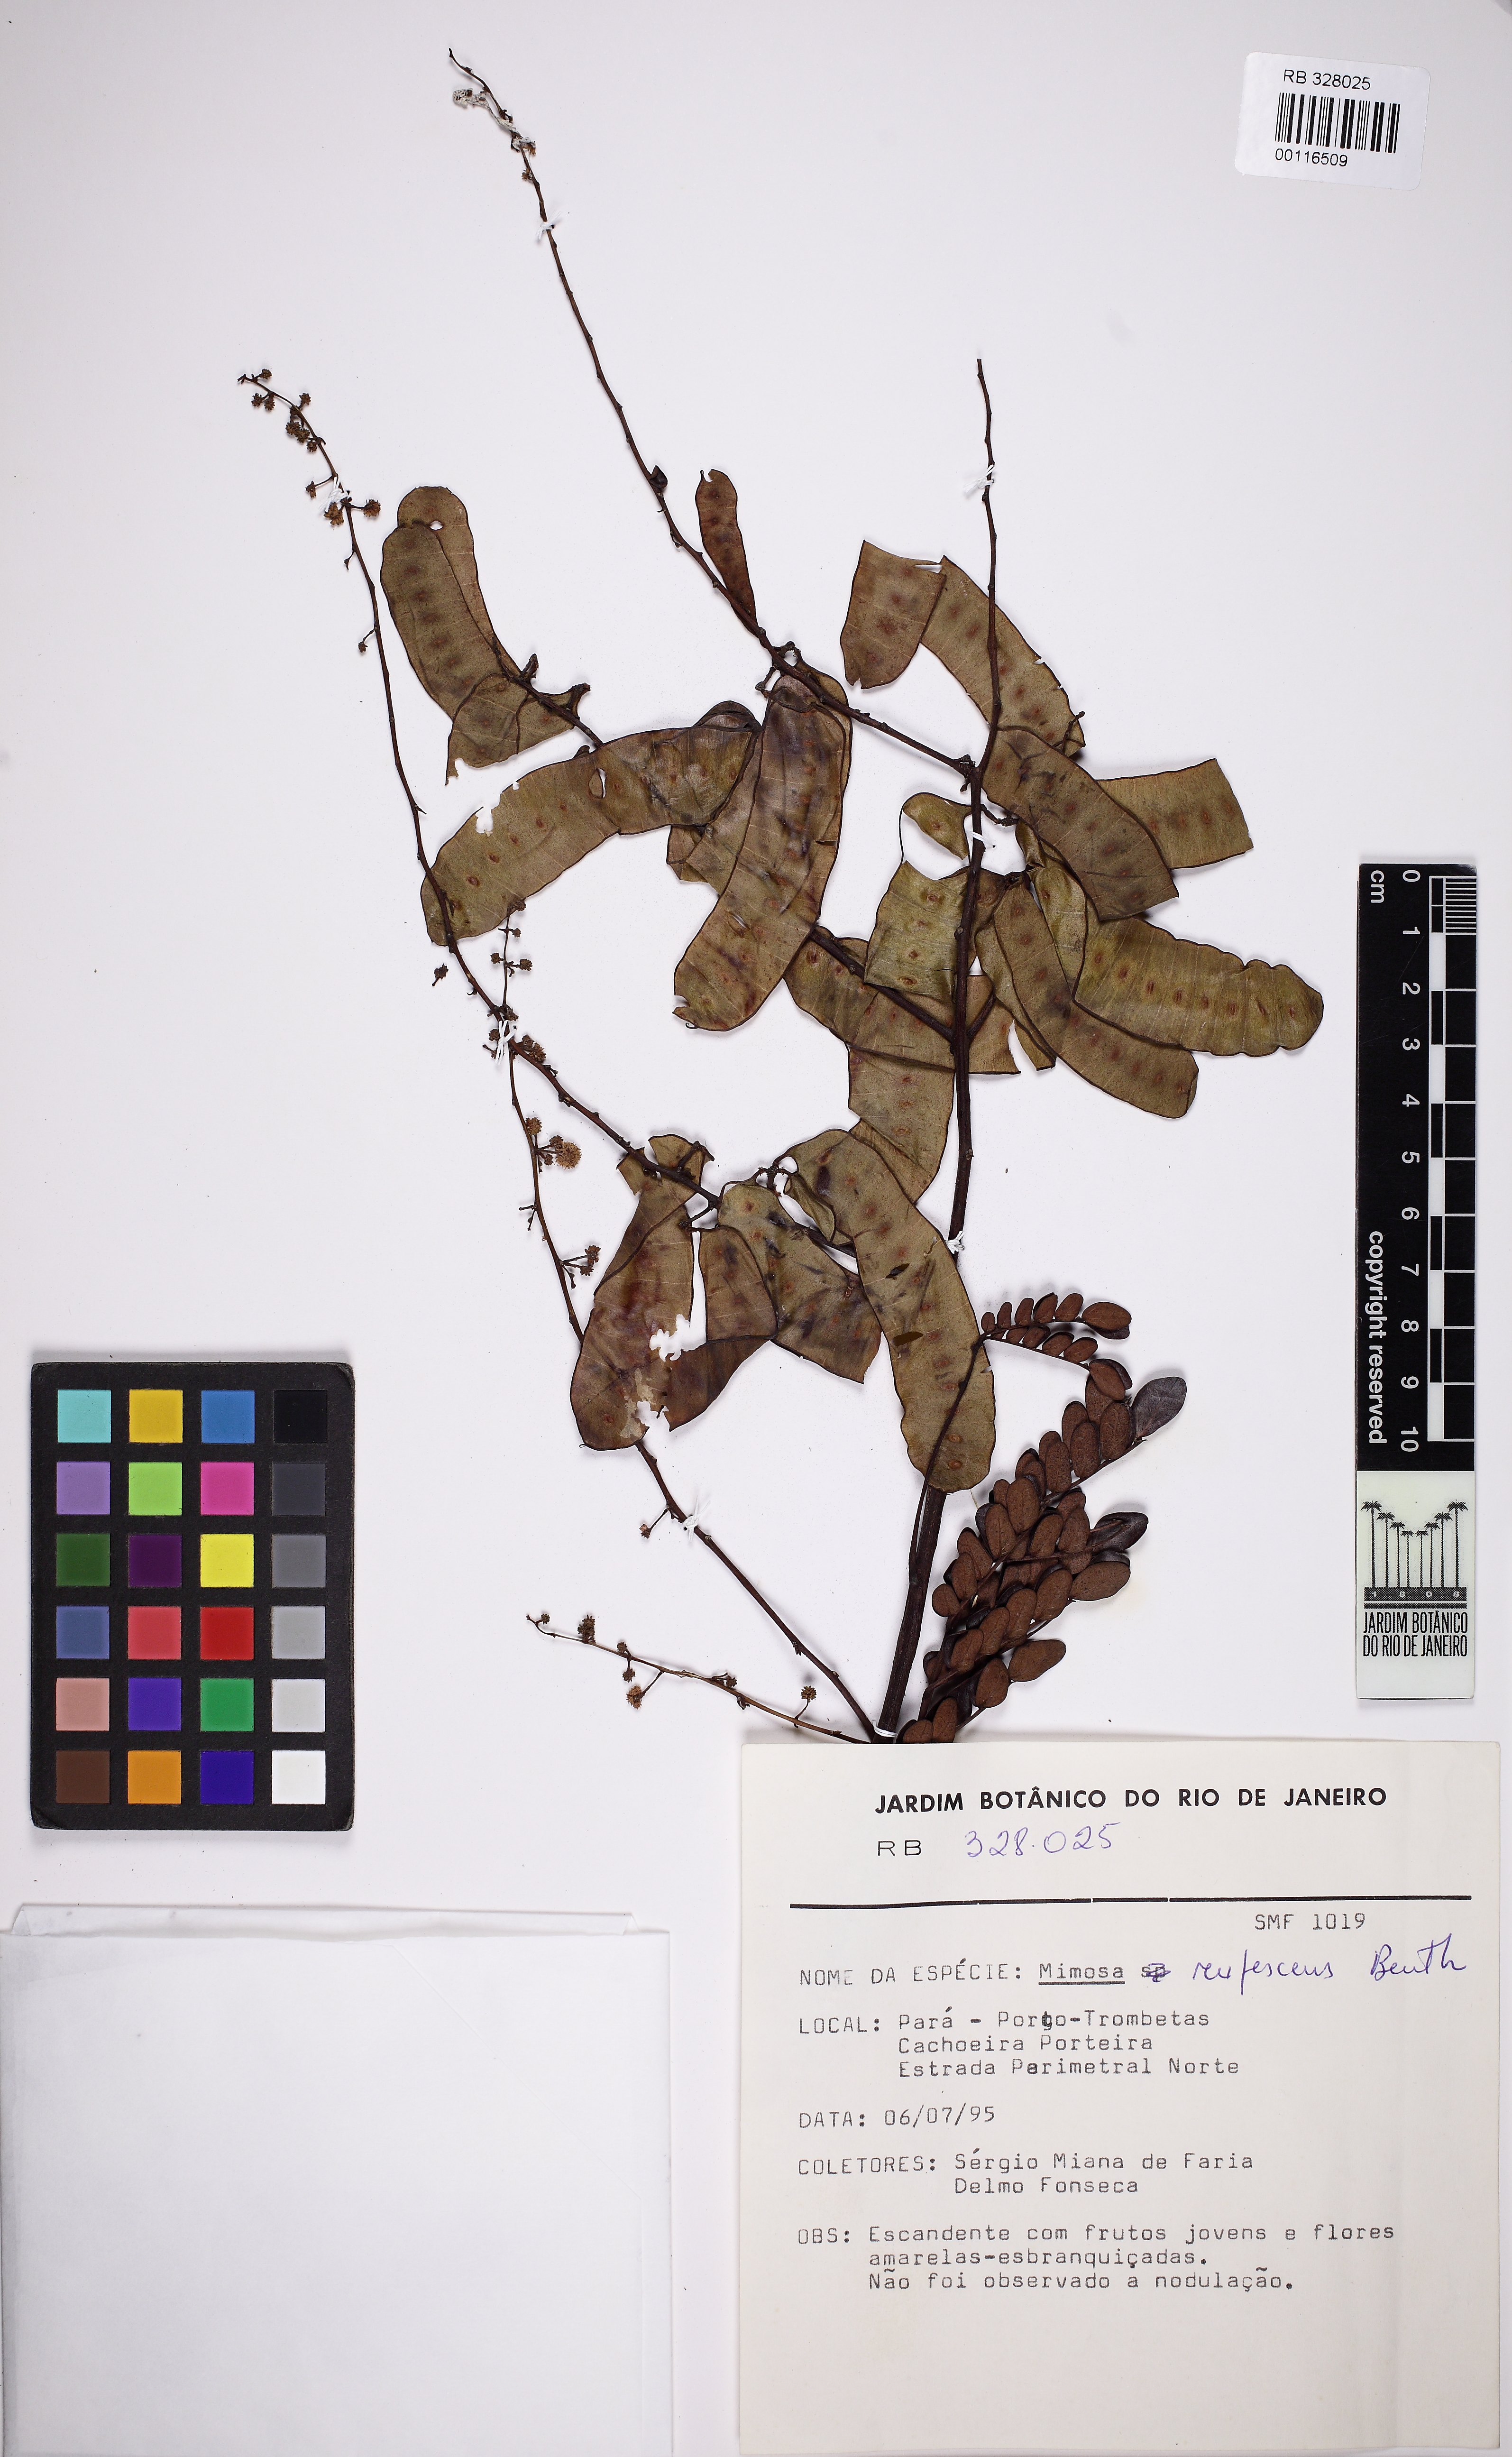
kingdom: Plantae
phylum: Tracheophyta
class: Magnoliopsida
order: Fabales
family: Fabaceae
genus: Mimosa
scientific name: Mimosa rufescens
